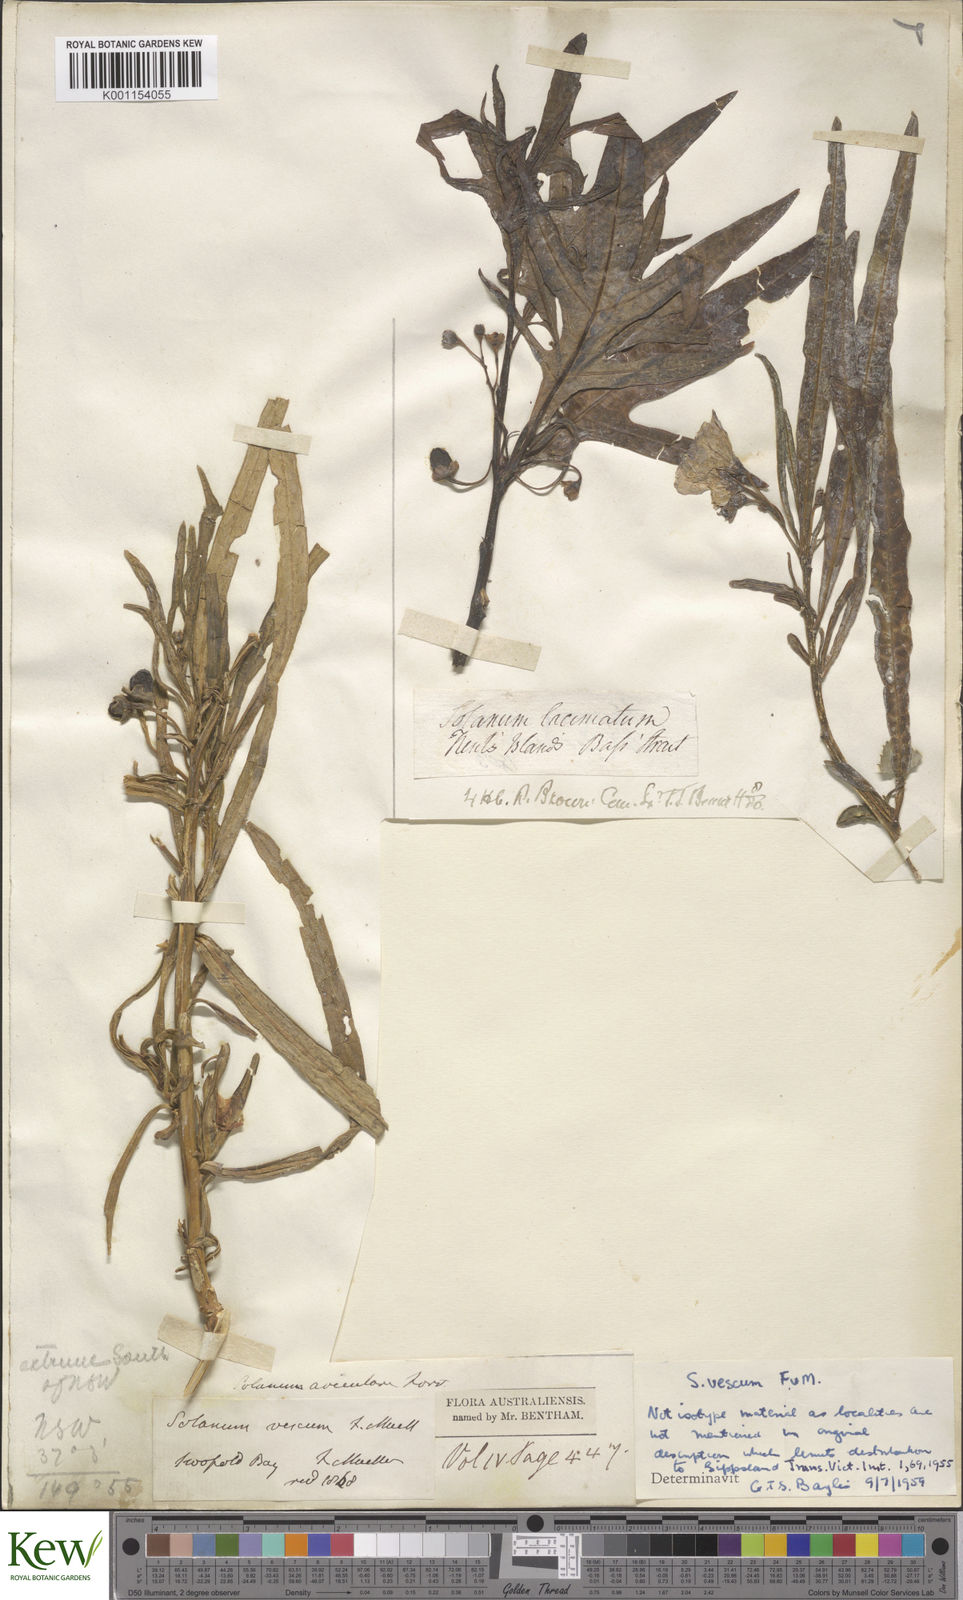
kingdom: Plantae
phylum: Tracheophyta
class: Magnoliopsida
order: Solanales
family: Solanaceae
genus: Solanum
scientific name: Solanum vescum
